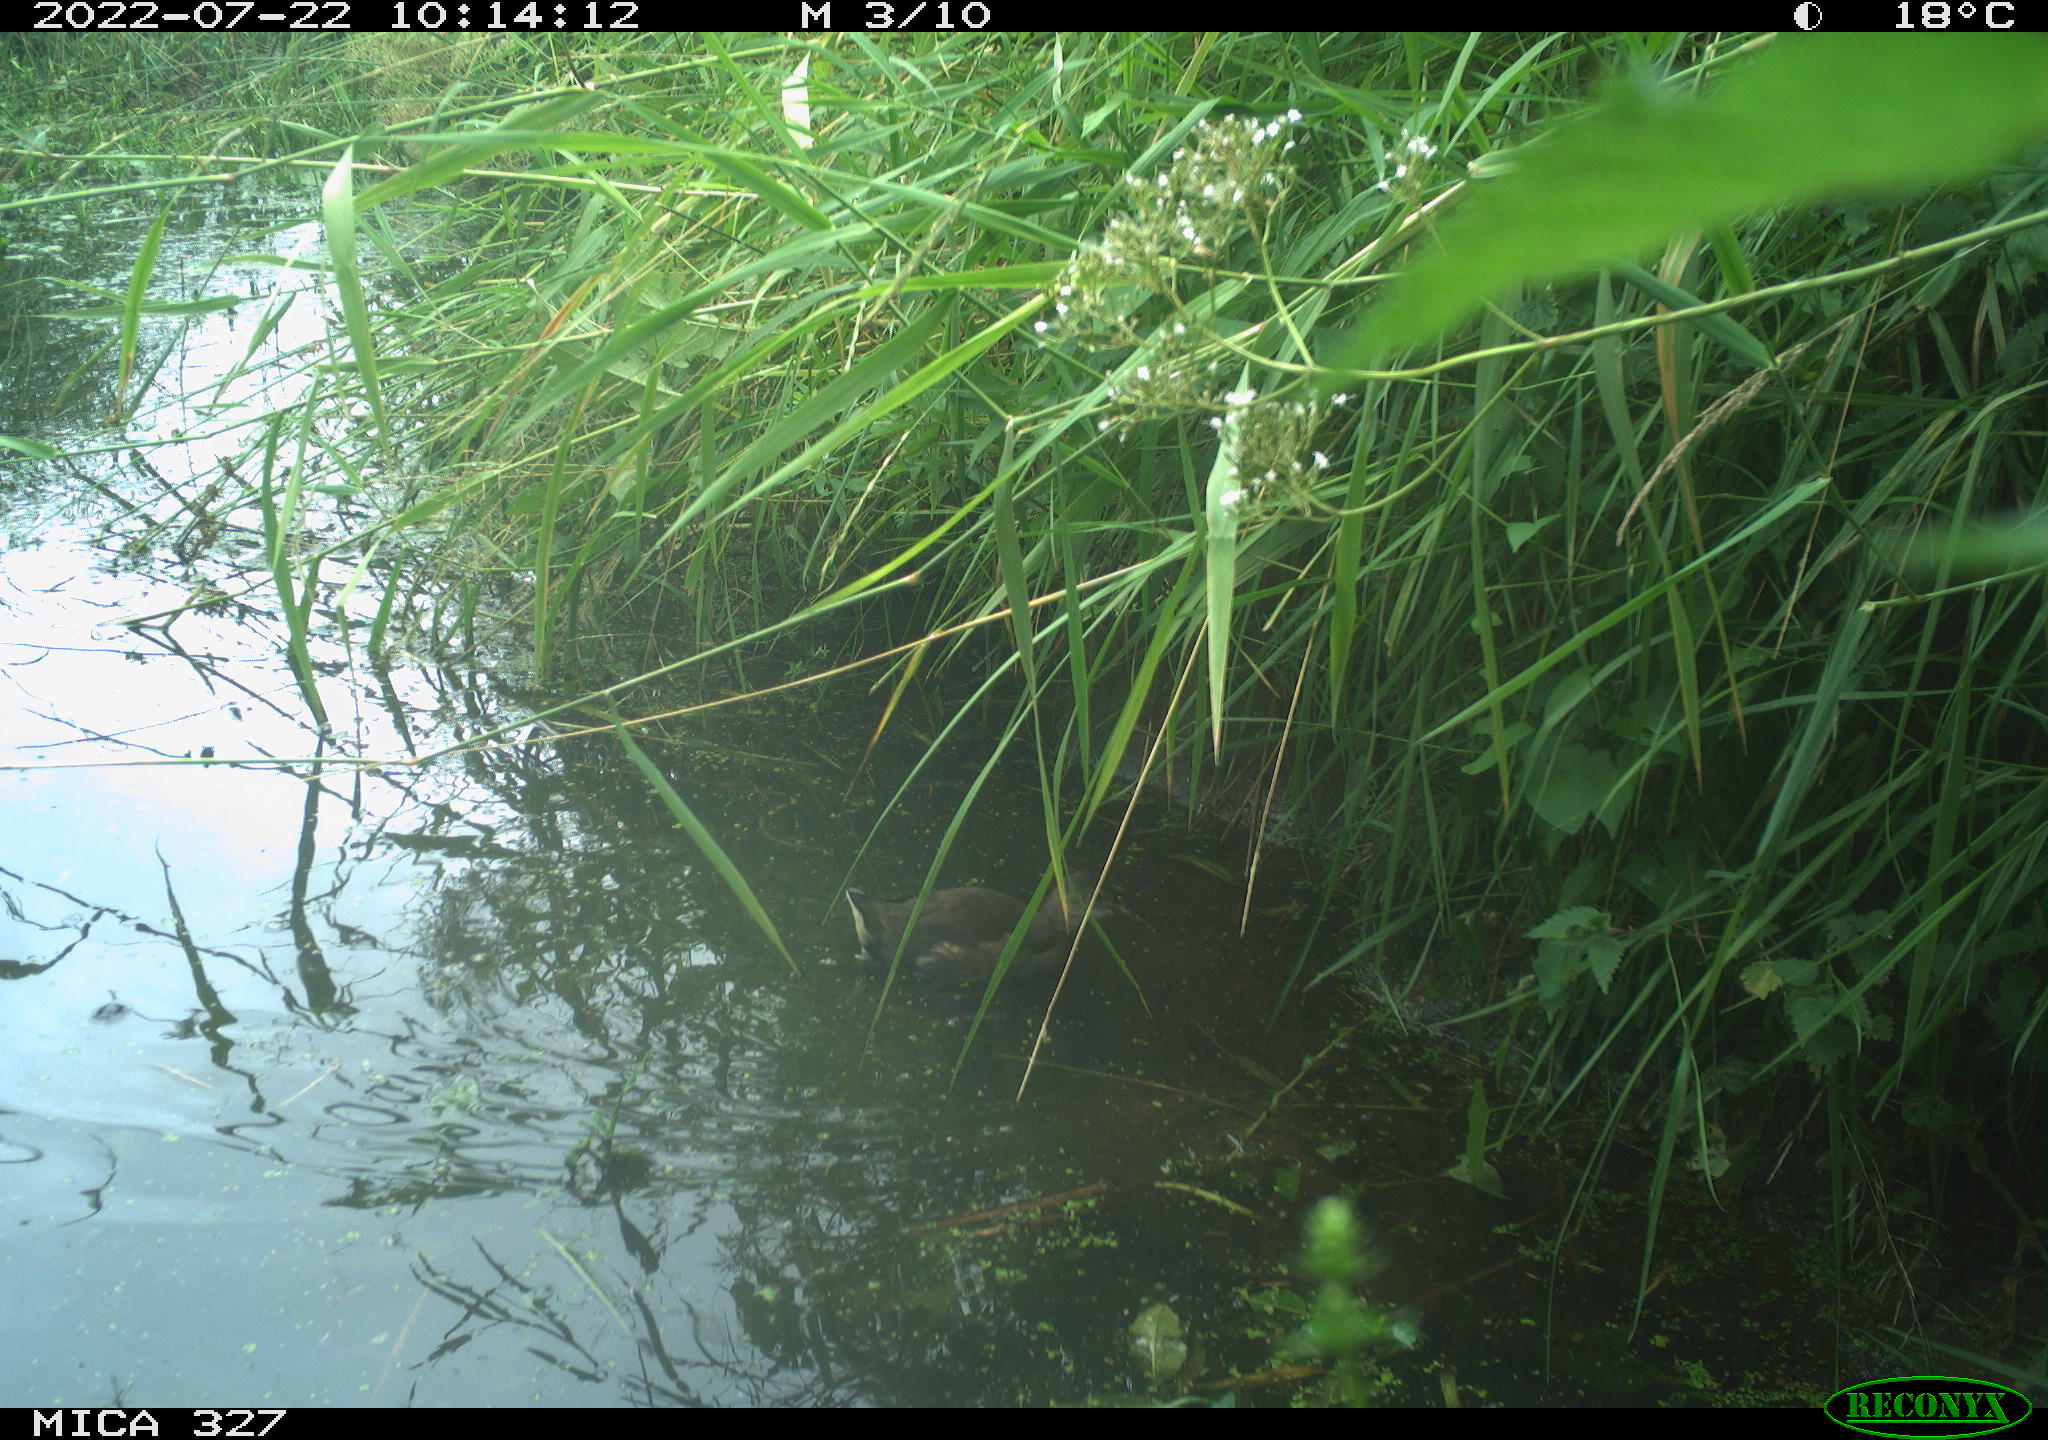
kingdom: Animalia
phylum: Chordata
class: Aves
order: Gruiformes
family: Rallidae
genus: Gallinula
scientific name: Gallinula chloropus
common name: Common moorhen
